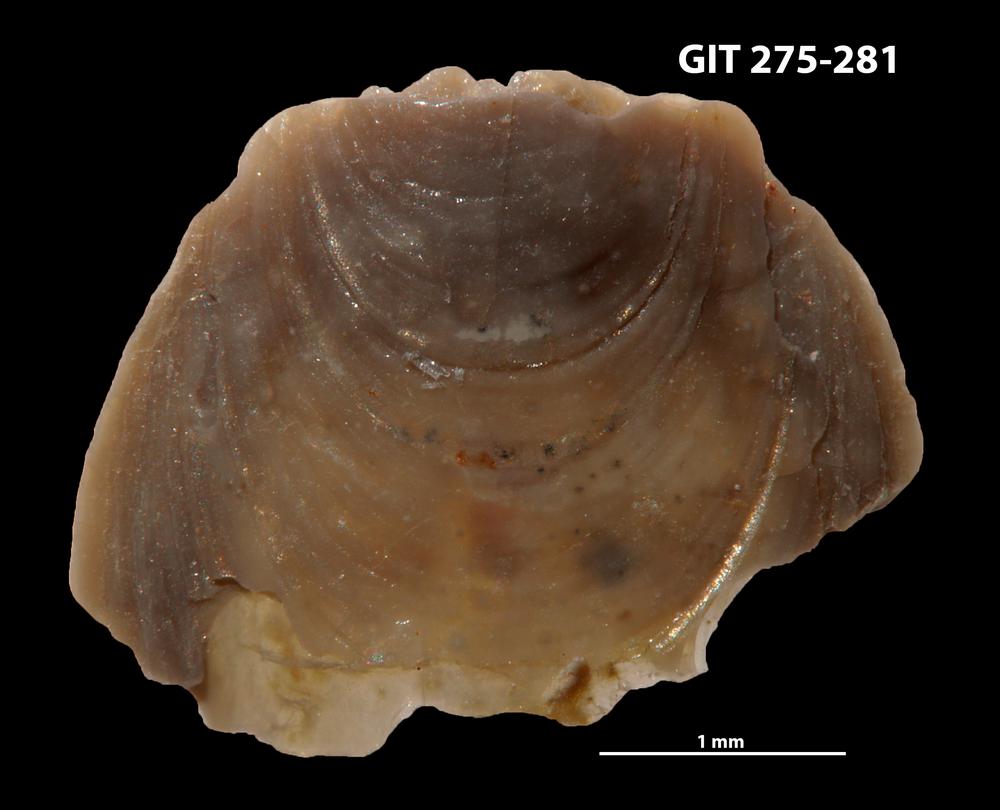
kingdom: Animalia
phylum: Brachiopoda
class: Lingulata
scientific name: Lingulata
